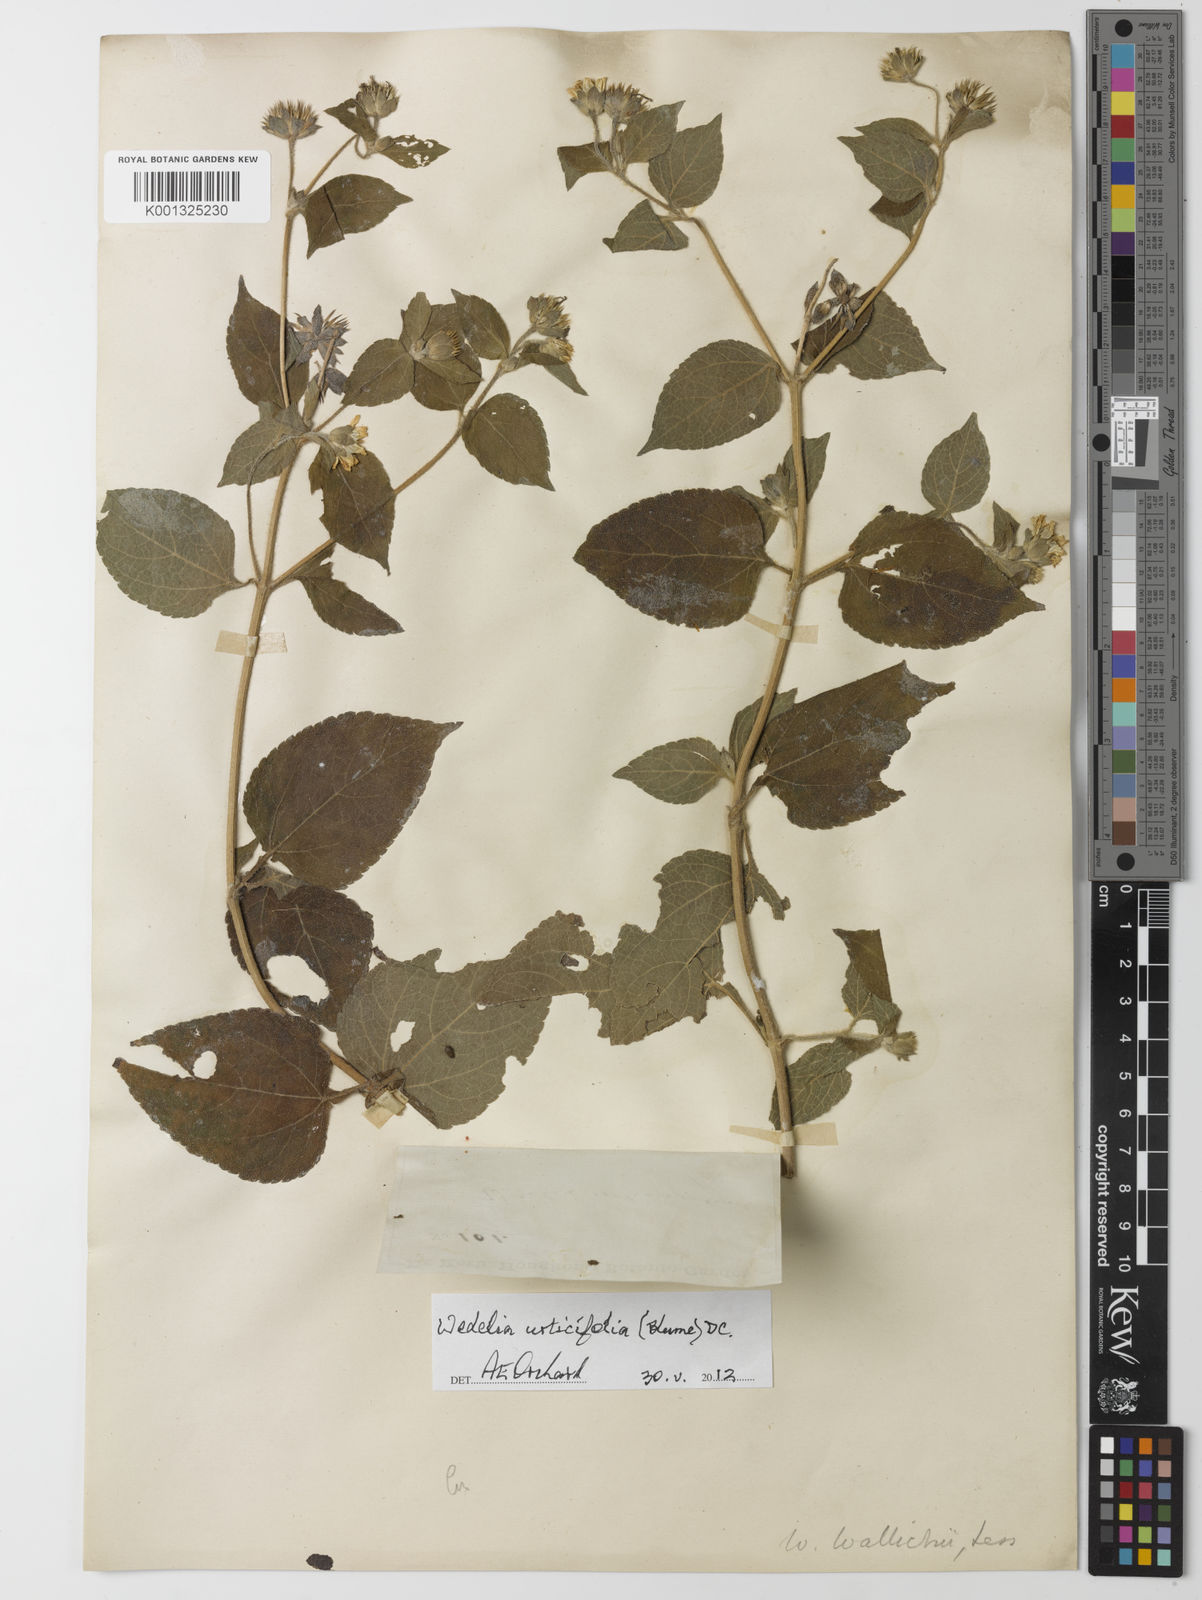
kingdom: Plantae
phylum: Tracheophyta
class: Magnoliopsida
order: Asterales
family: Asteraceae
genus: Lipoblepharis
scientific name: Lipoblepharis urticifolia
